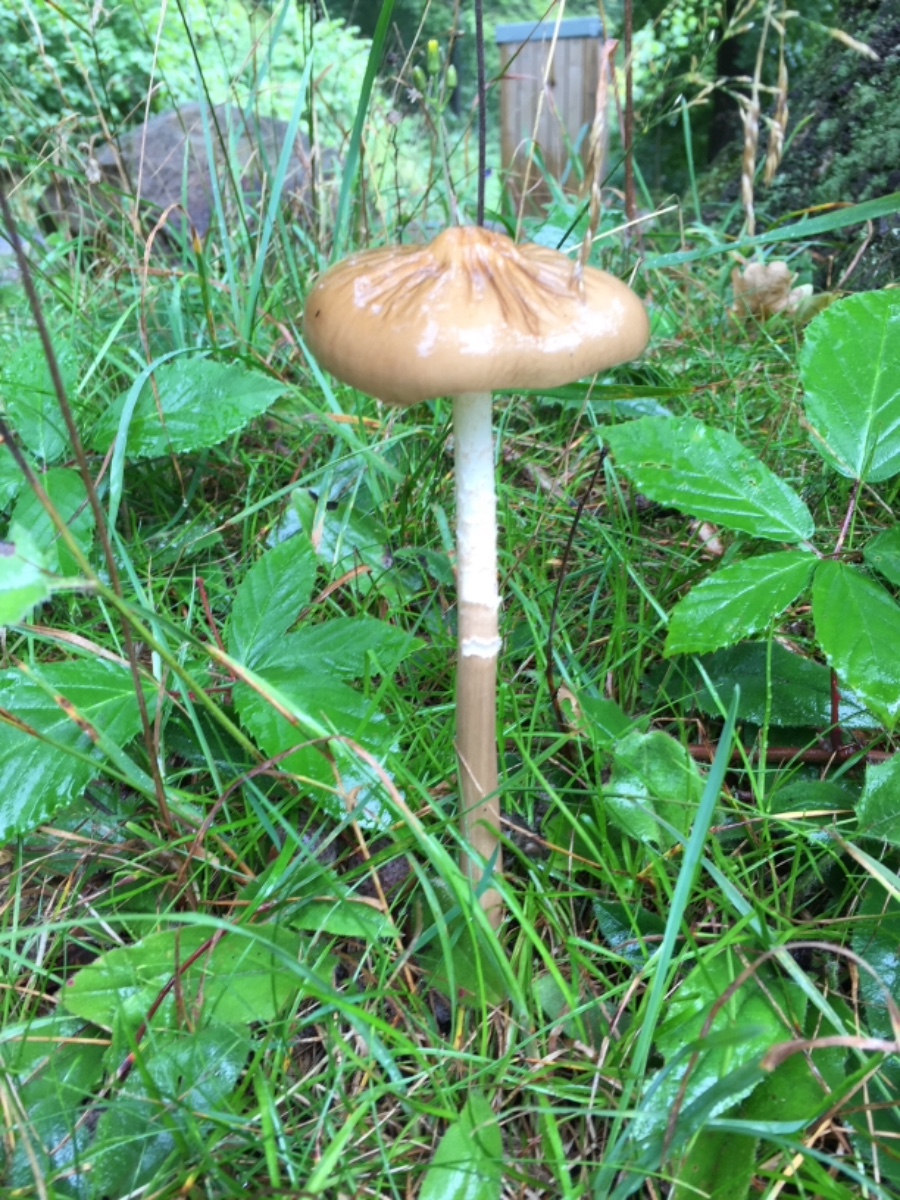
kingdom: Fungi
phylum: Basidiomycota
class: Agaricomycetes
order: Agaricales
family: Physalacriaceae
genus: Hymenopellis
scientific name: Hymenopellis radicata
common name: almindelig pælerodshat
